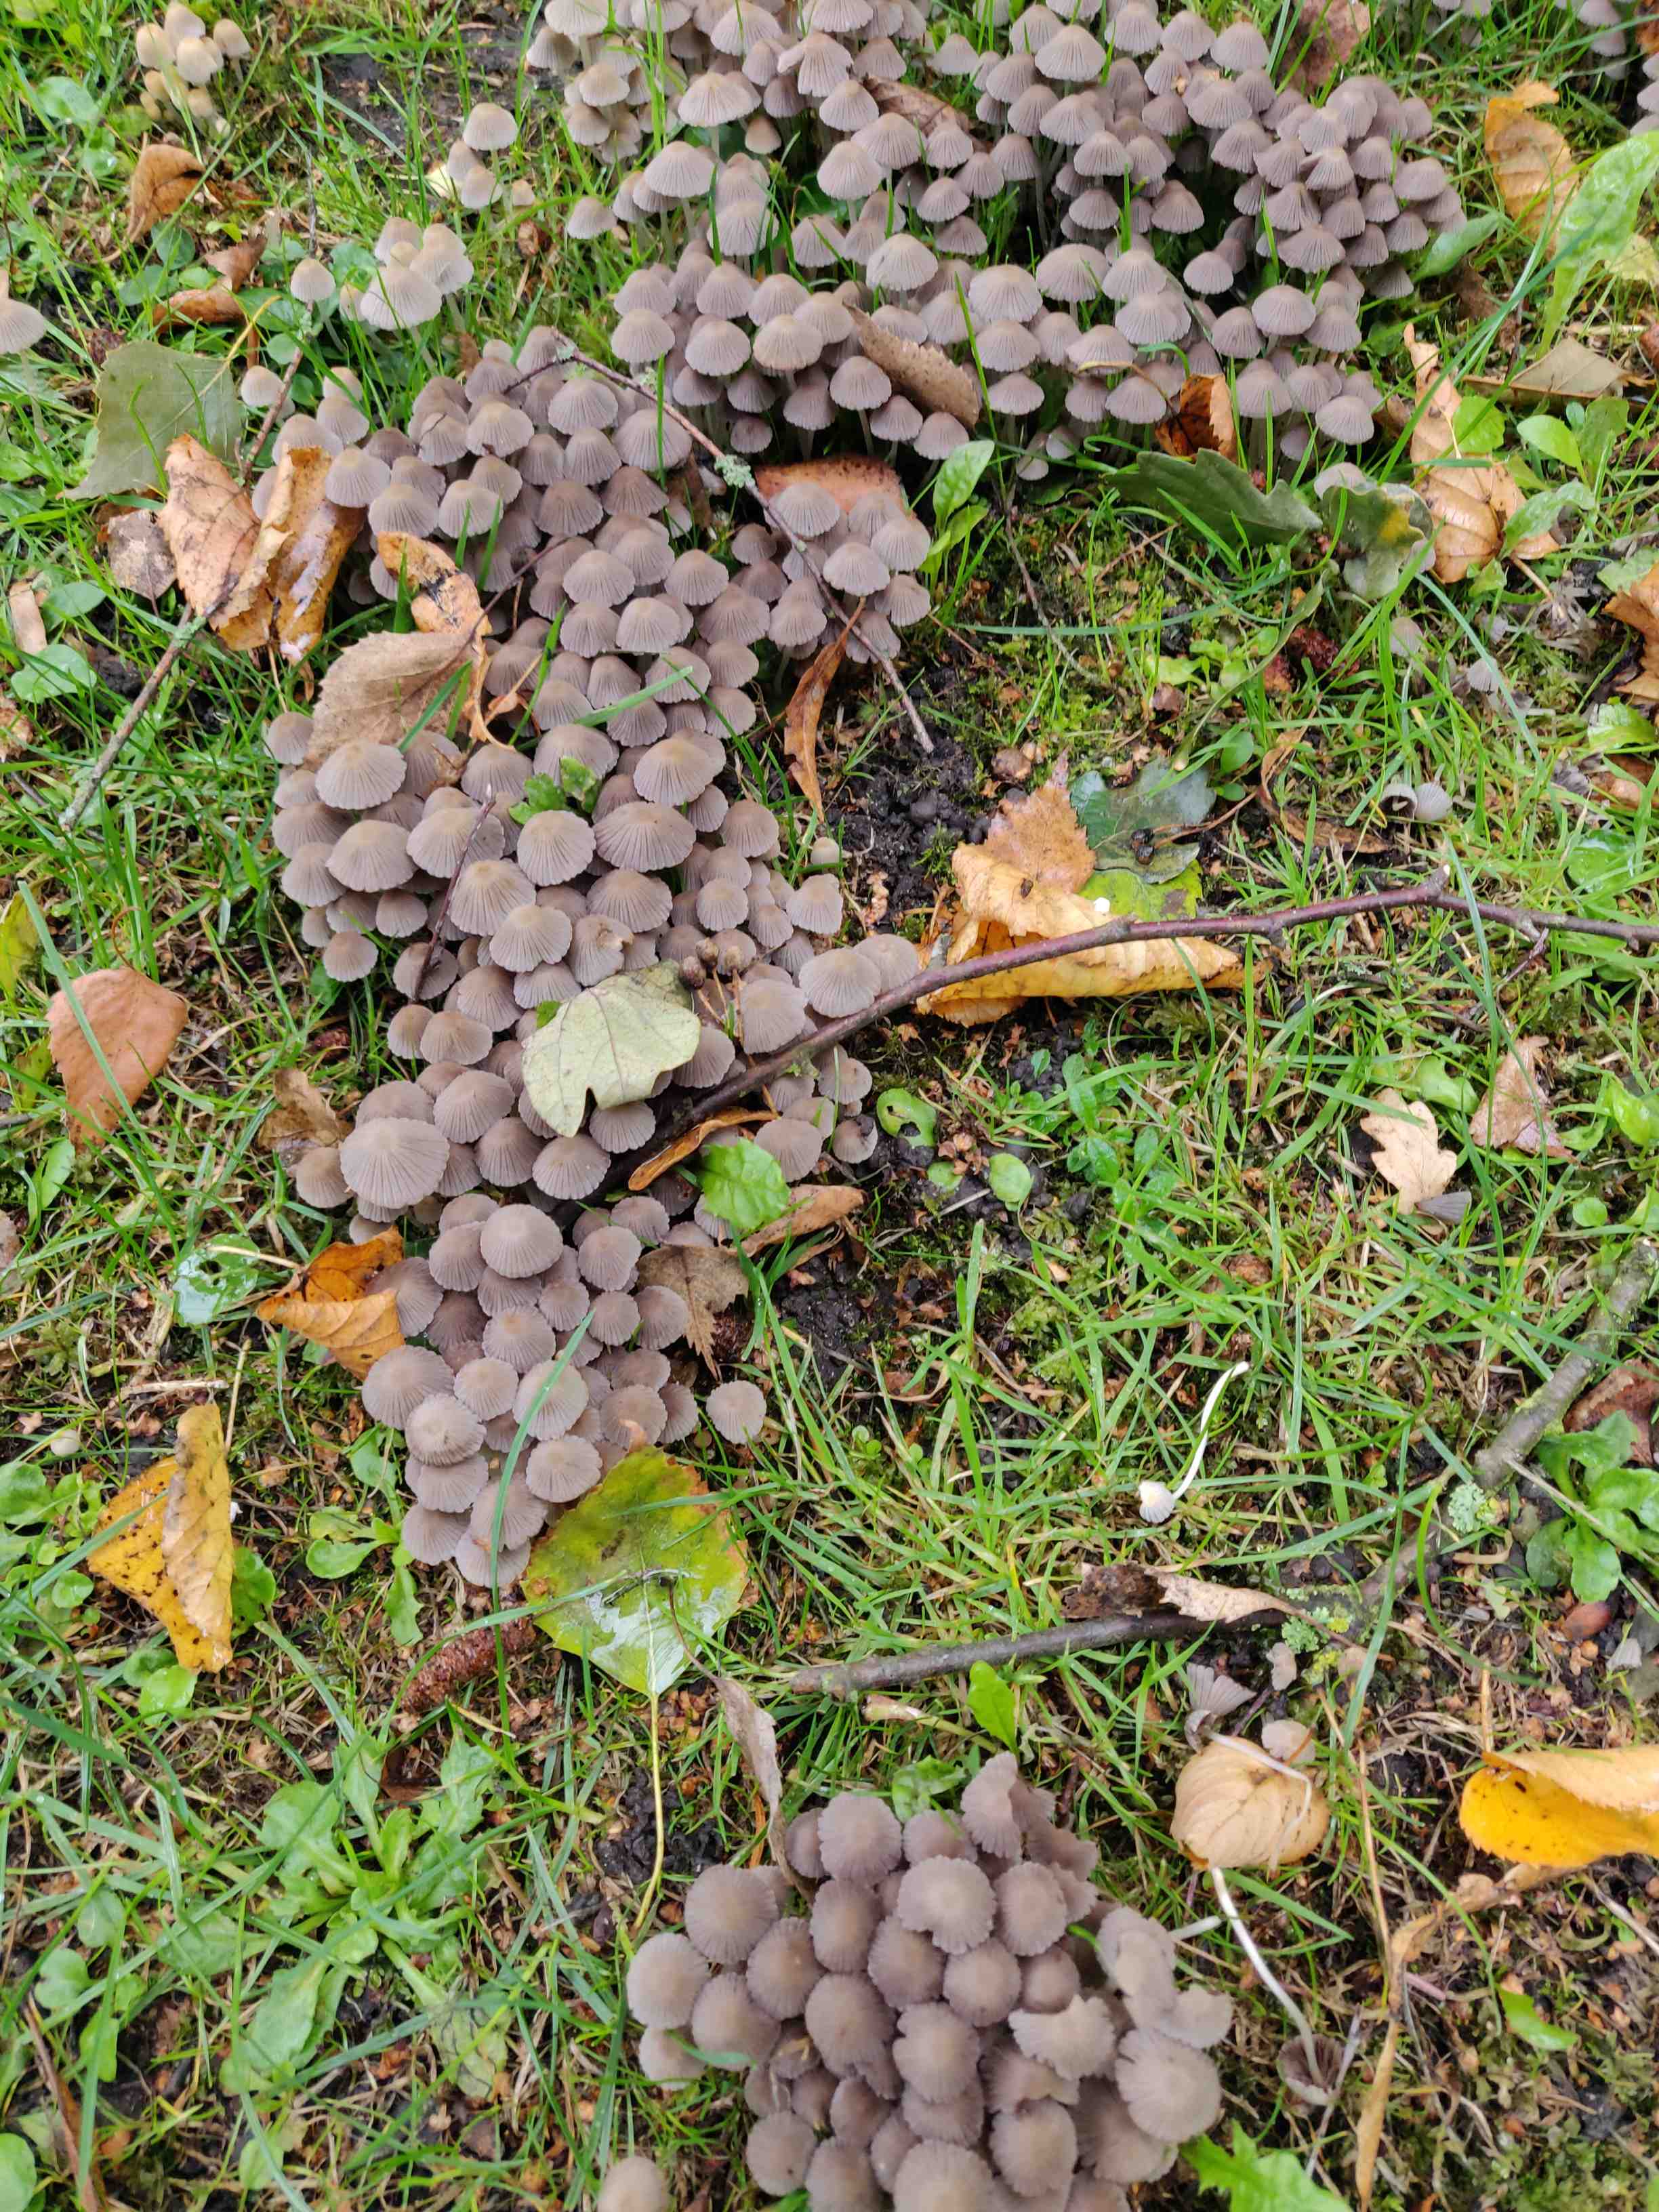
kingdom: Fungi
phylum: Basidiomycota
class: Agaricomycetes
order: Agaricales
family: Psathyrellaceae
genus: Coprinellus
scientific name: Coprinellus disseminatus
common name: bredsået blækhat
